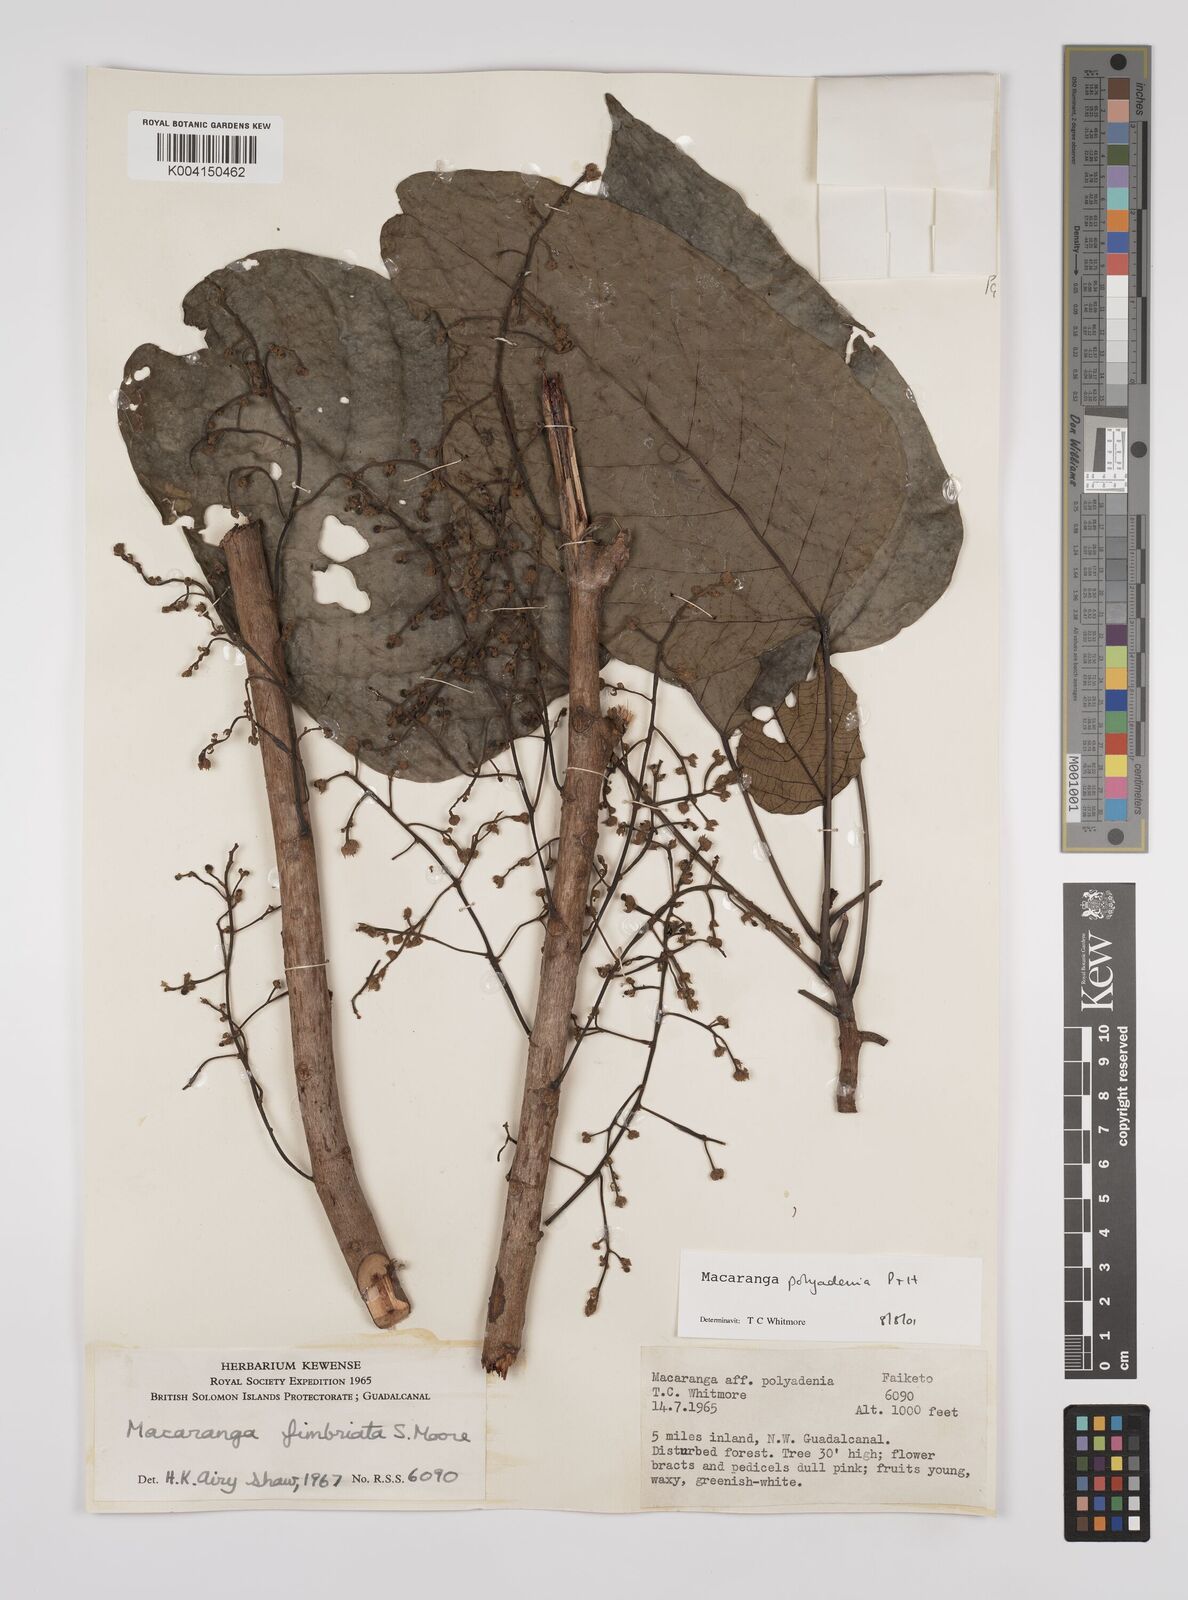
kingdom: Plantae
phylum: Tracheophyta
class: Magnoliopsida
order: Malpighiales
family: Euphorbiaceae
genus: Macaranga
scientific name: Macaranga polyadenia
